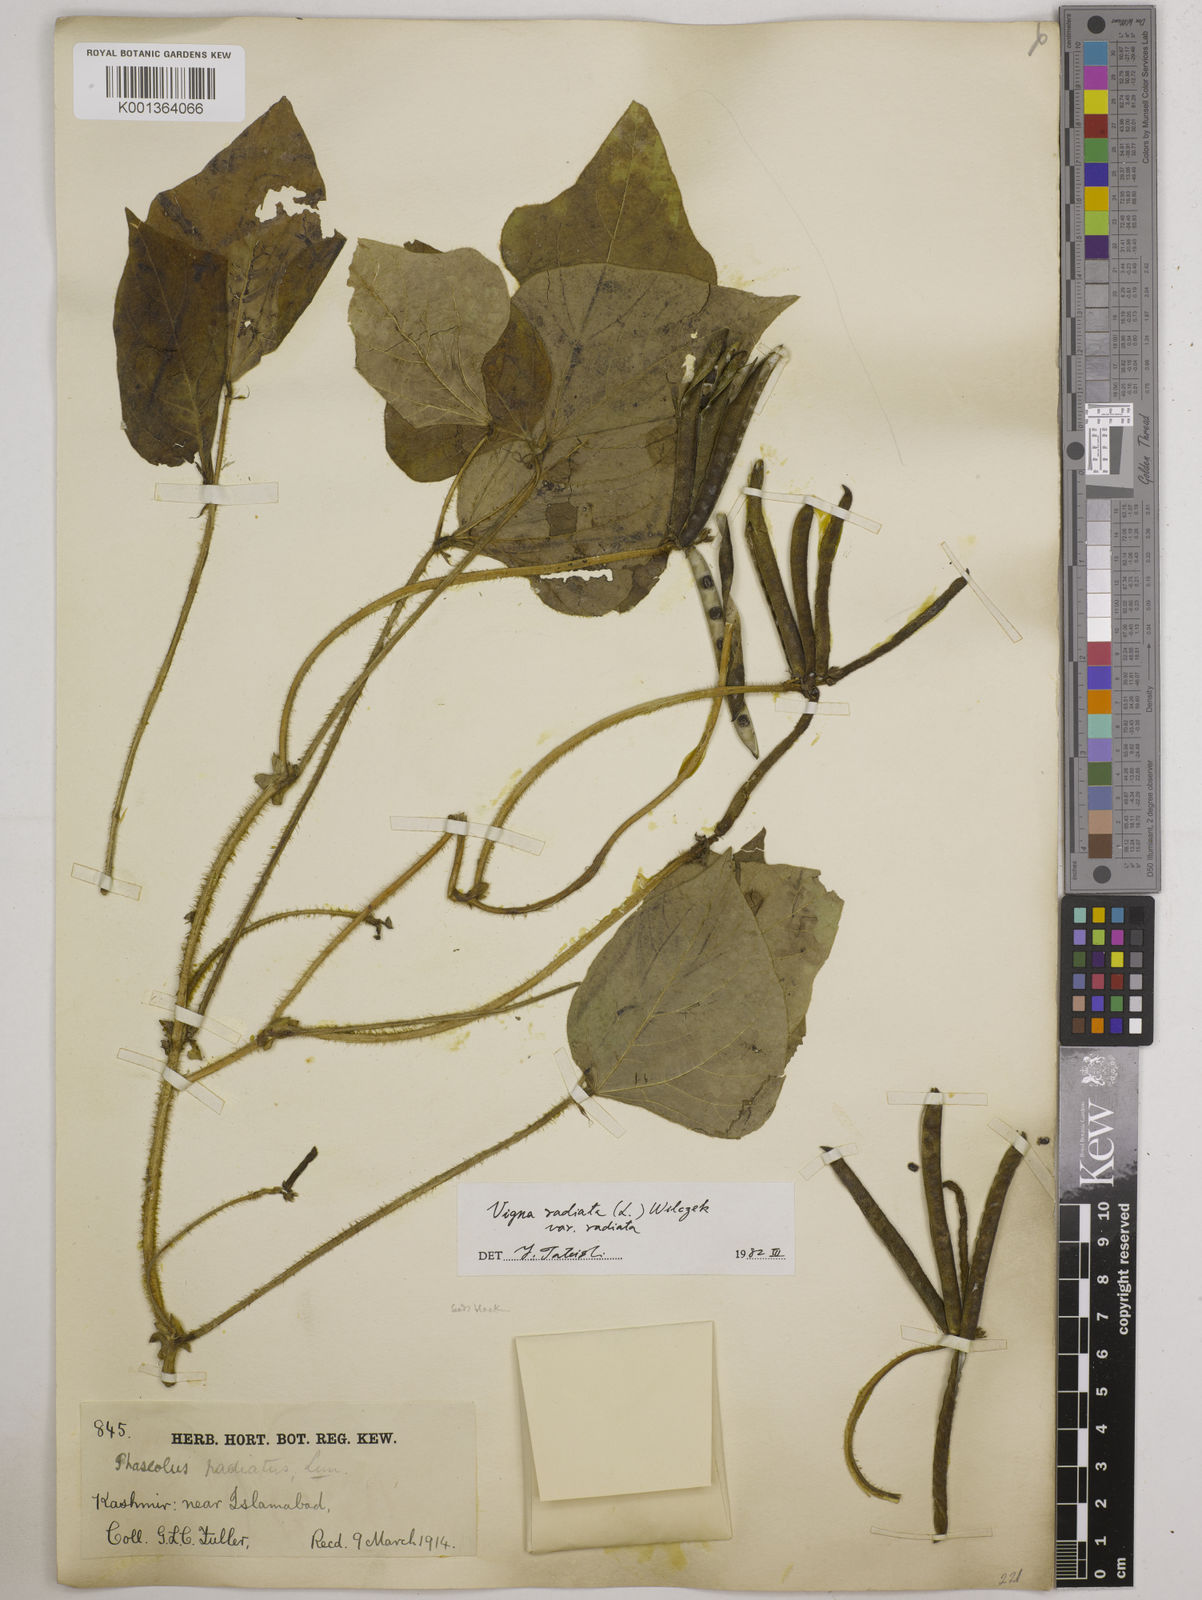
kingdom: Plantae
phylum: Tracheophyta
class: Magnoliopsida
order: Fabales
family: Fabaceae
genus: Vigna
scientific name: Vigna radiata
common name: Mung-bean
